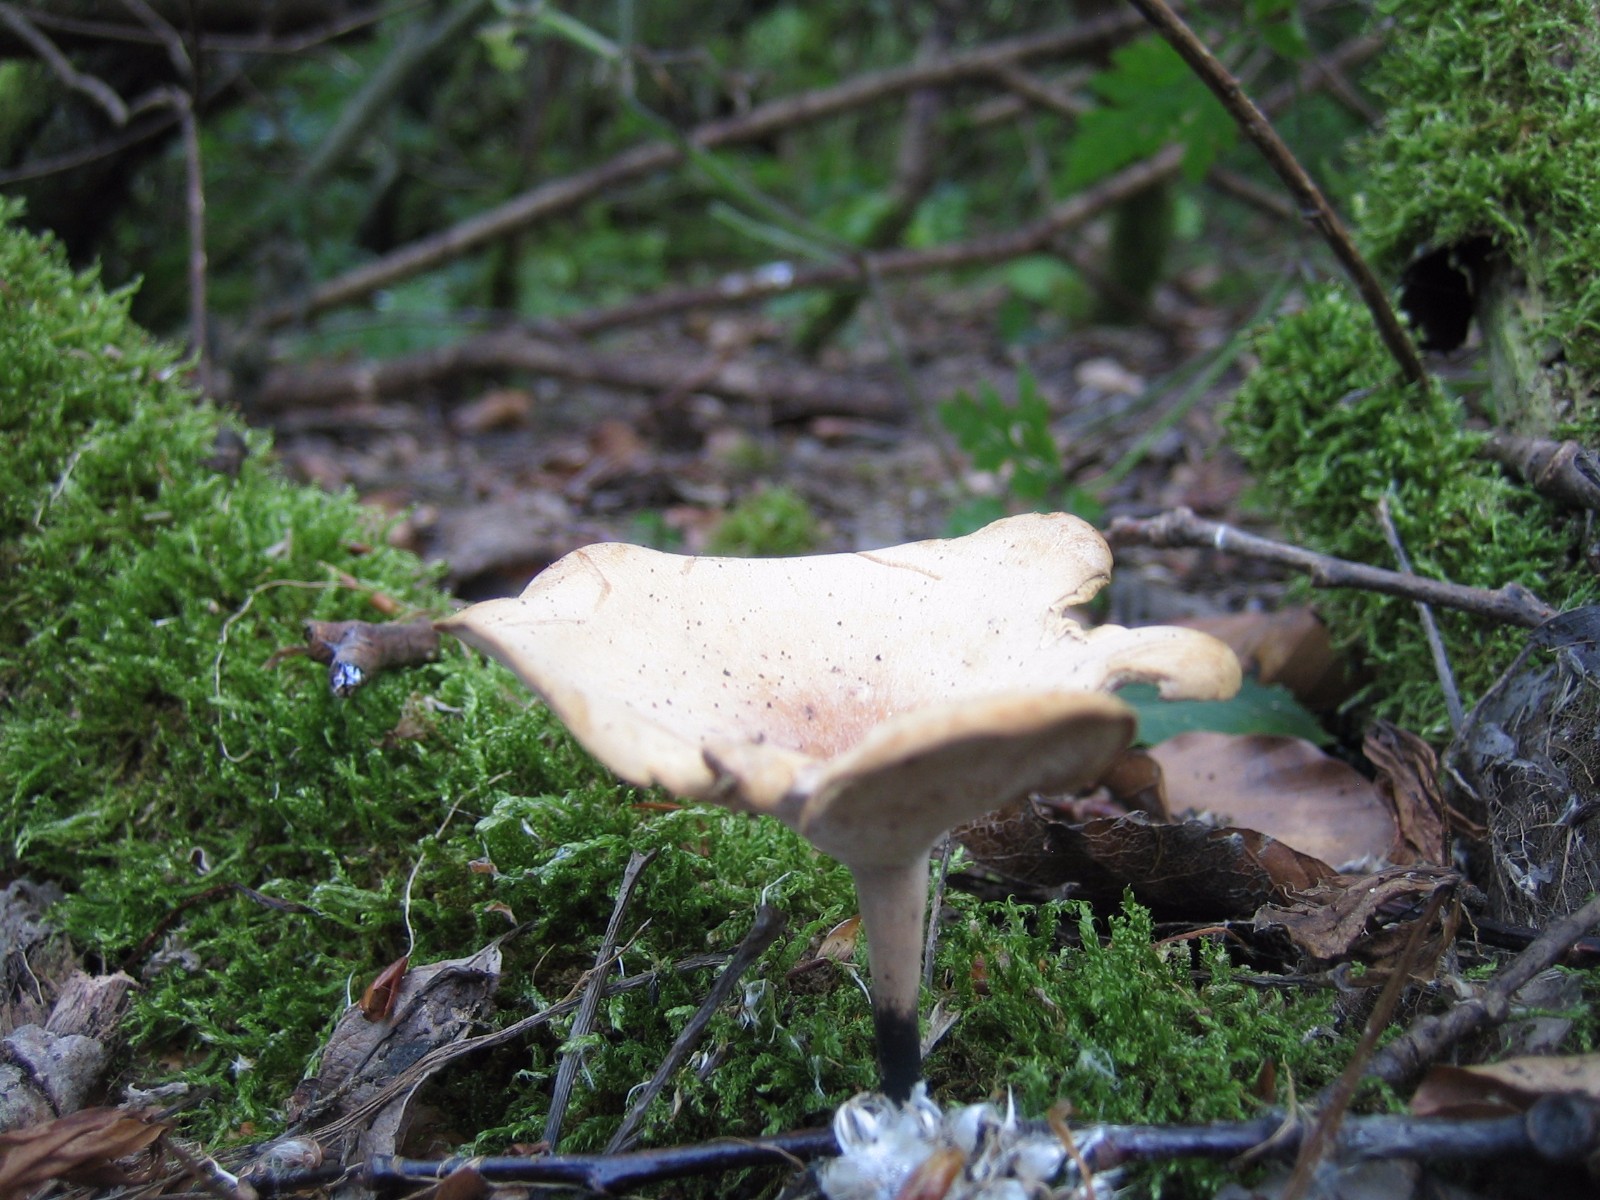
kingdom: Fungi
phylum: Basidiomycota
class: Agaricomycetes
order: Polyporales
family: Polyporaceae
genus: Cerioporus
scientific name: Cerioporus varius
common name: foranderlig stilkporesvamp
